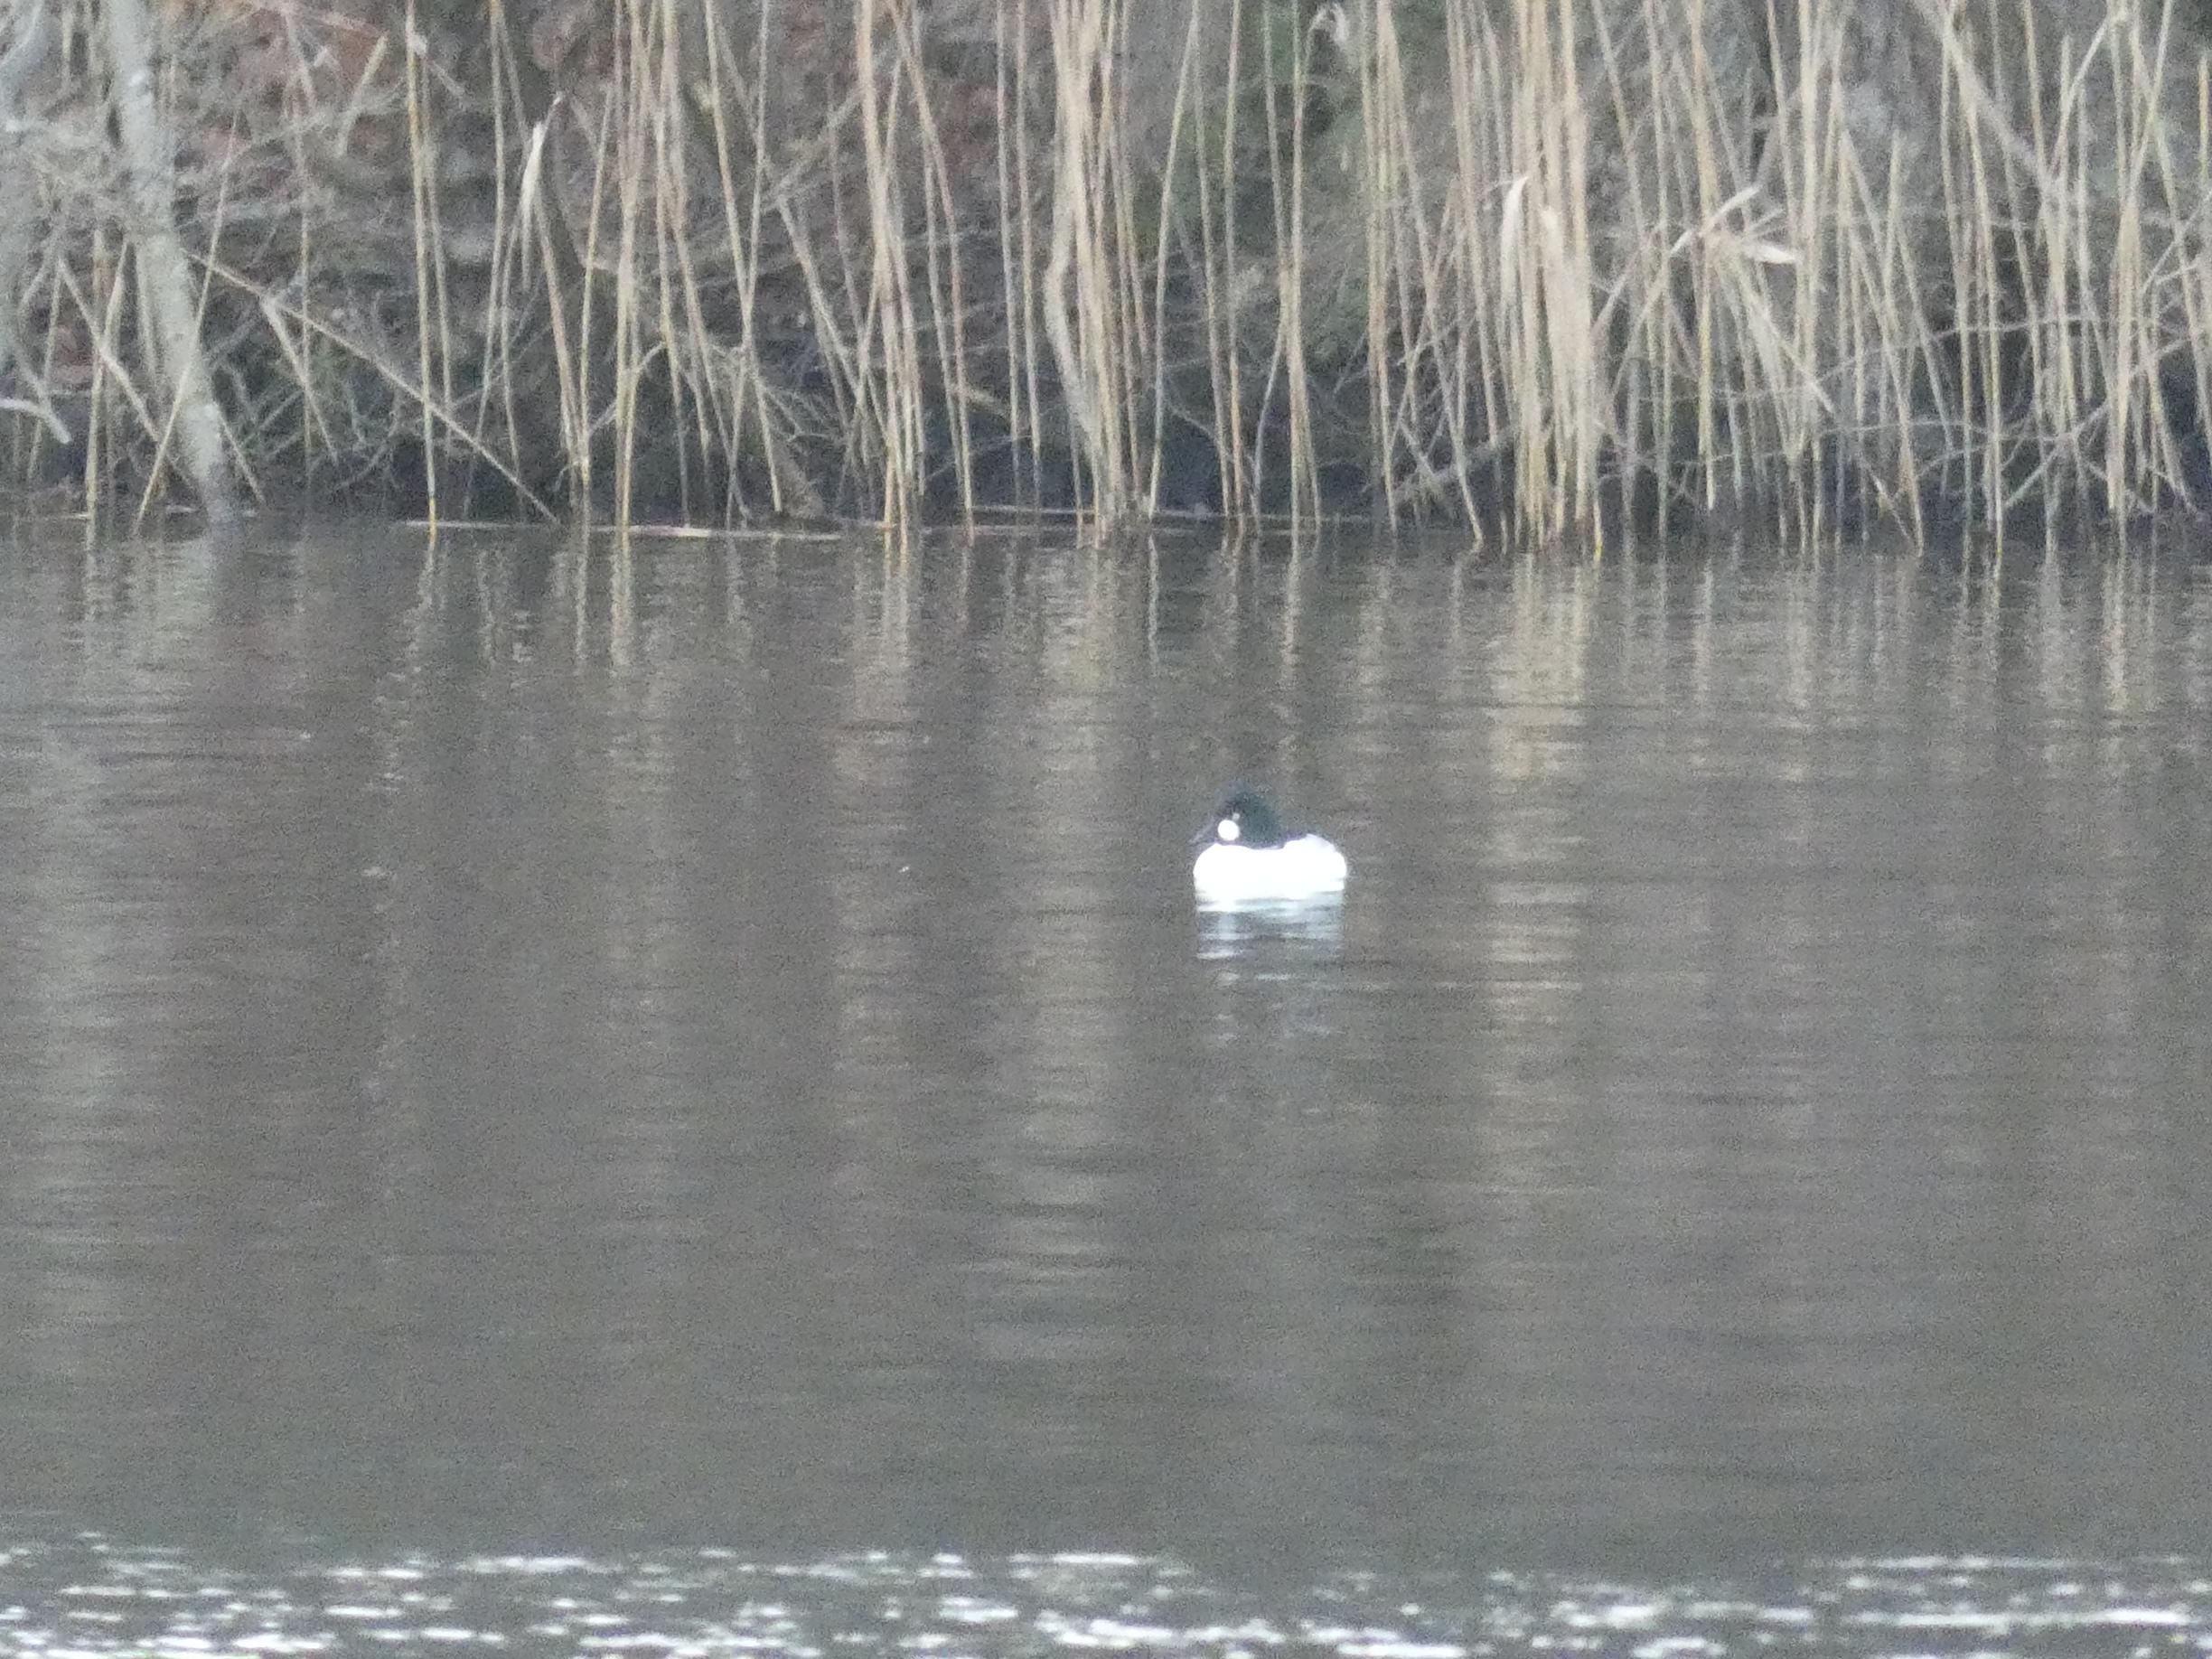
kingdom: Animalia
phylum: Chordata
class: Aves
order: Anseriformes
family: Anatidae
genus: Bucephala
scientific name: Bucephala clangula
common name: Hvinand
